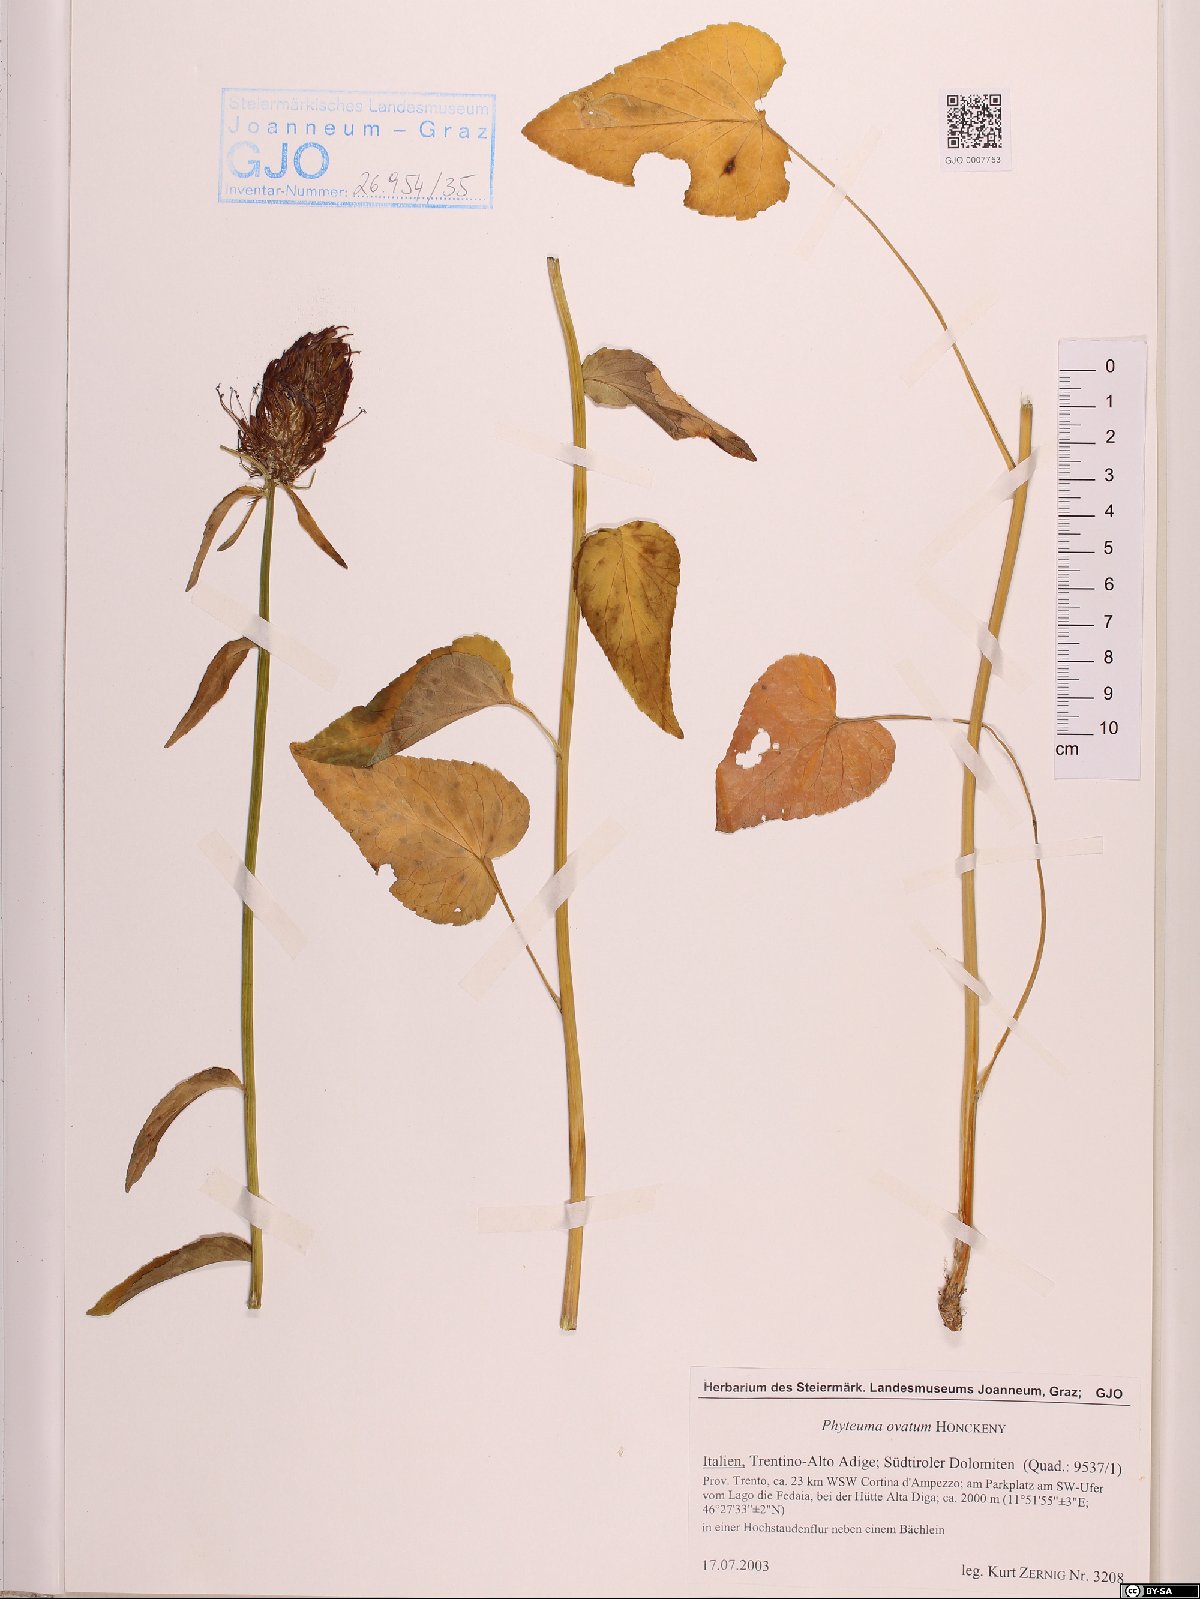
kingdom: Plantae
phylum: Tracheophyta
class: Magnoliopsida
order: Asterales
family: Campanulaceae
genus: Phyteuma
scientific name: Phyteuma ovatum
